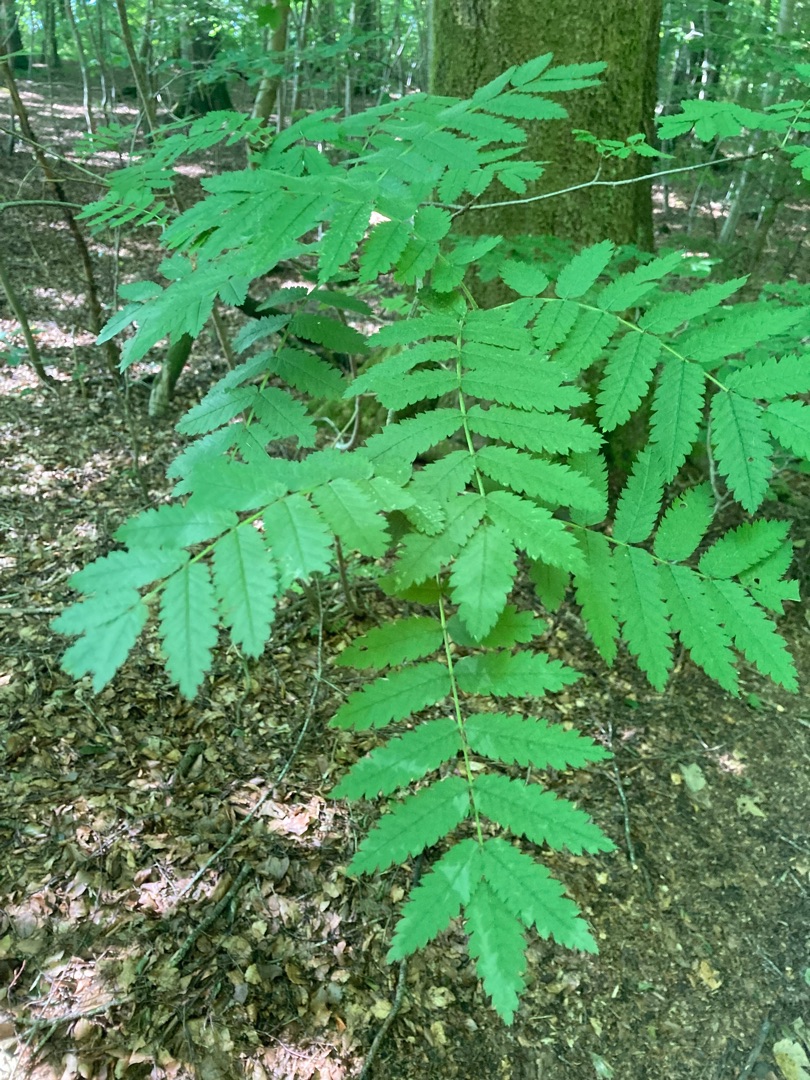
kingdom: Plantae
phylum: Tracheophyta
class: Magnoliopsida
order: Rosales
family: Rosaceae
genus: Sorbus
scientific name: Sorbus aucuparia
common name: Almindelig røn
